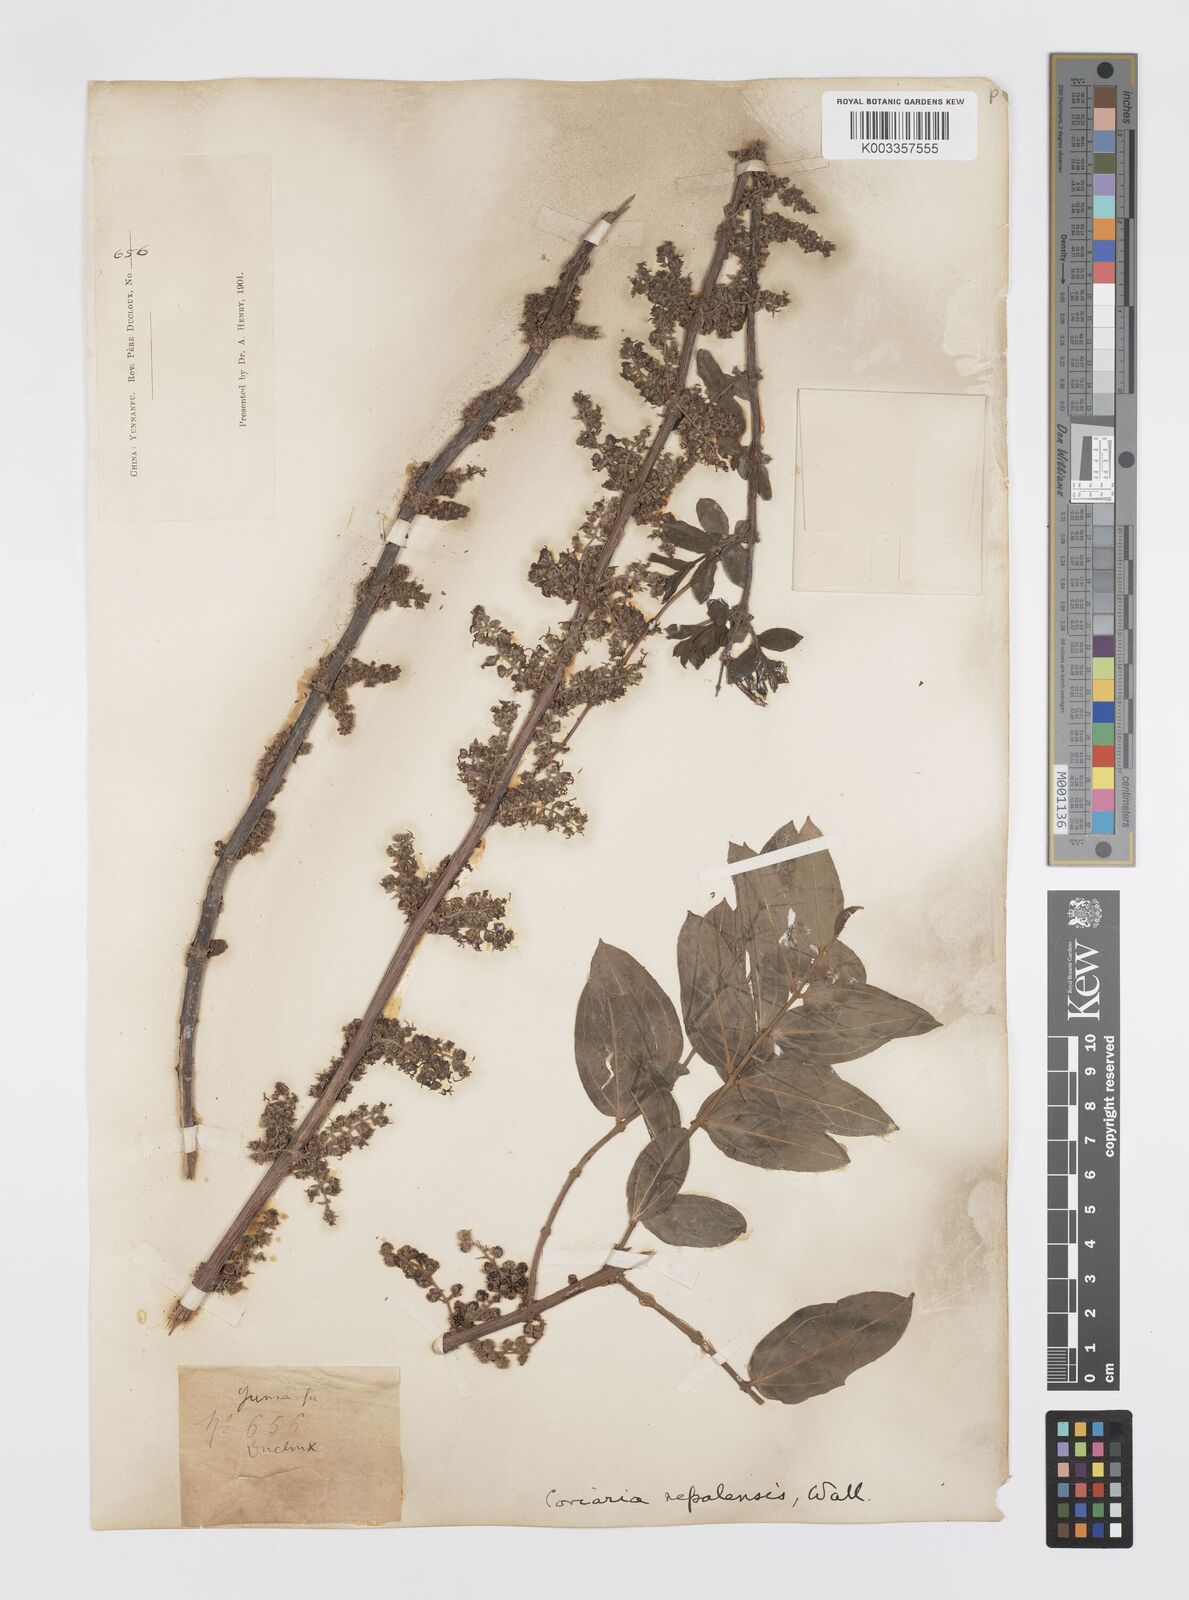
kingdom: Plantae
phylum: Tracheophyta
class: Magnoliopsida
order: Cucurbitales
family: Coriariaceae
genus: Coriaria
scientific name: Coriaria napalensis
